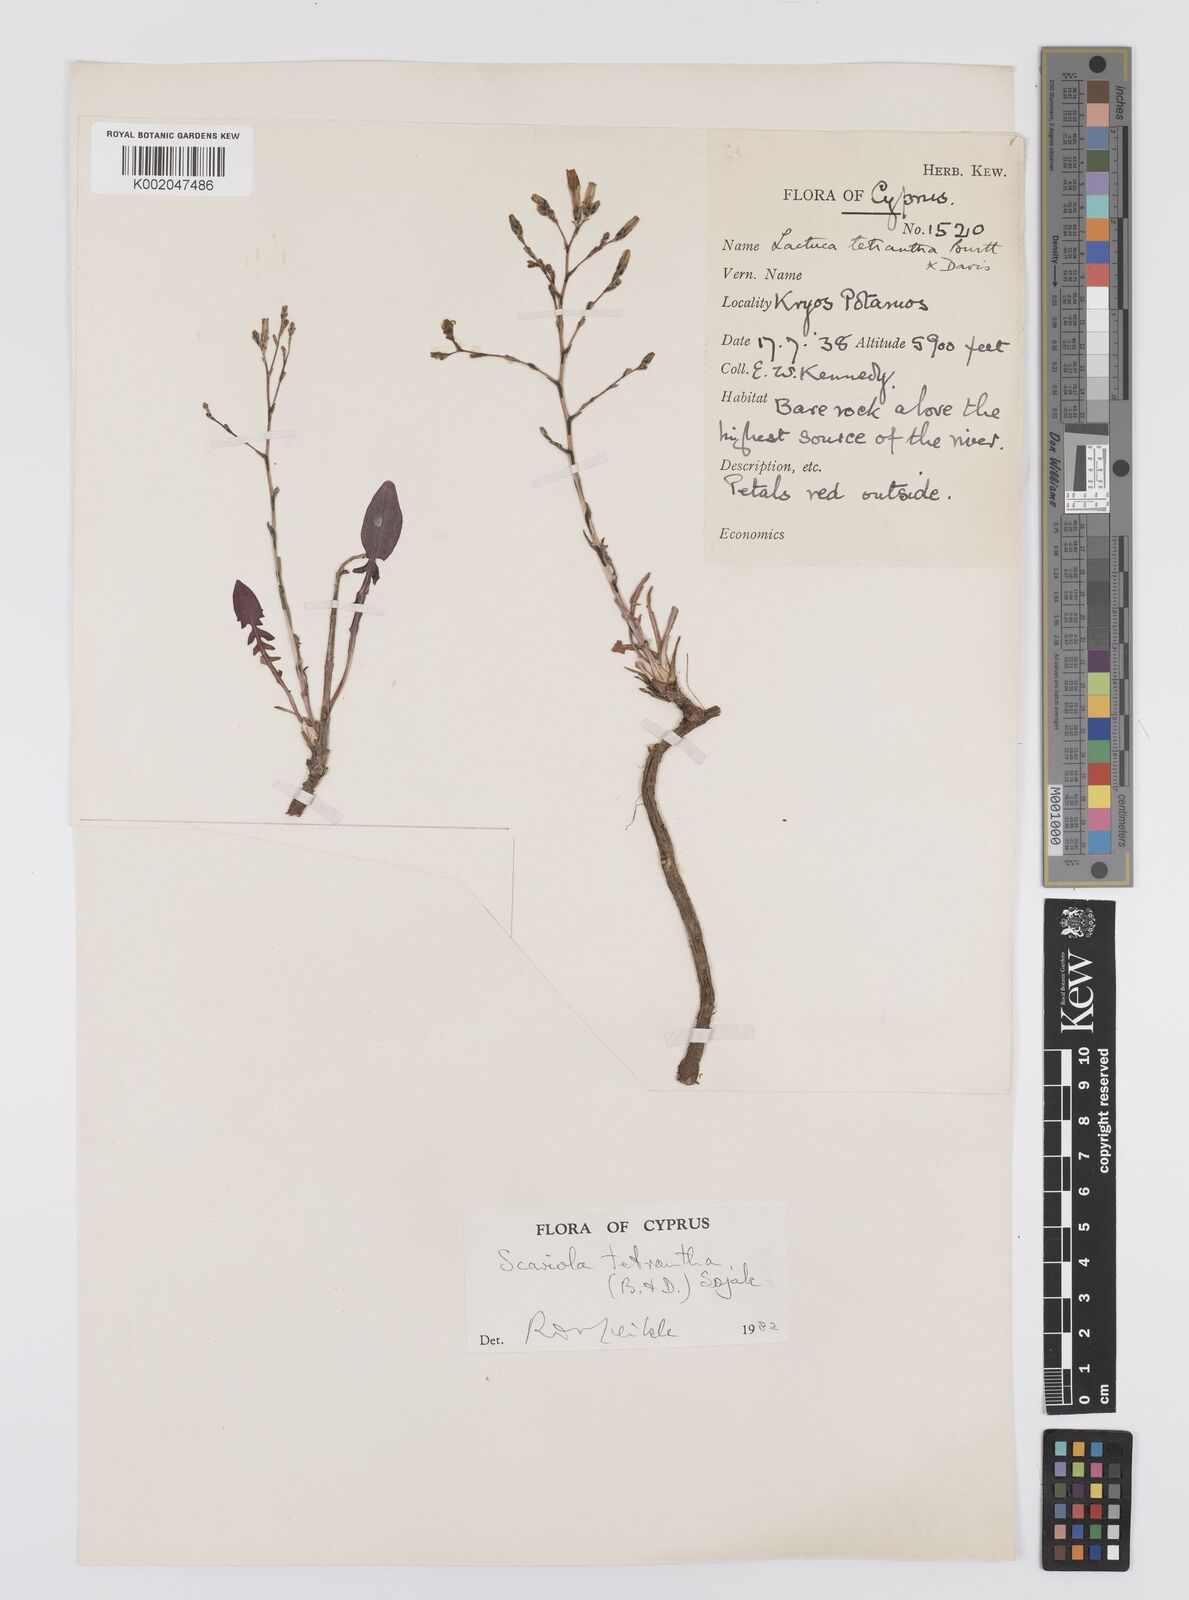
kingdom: Plantae
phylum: Tracheophyta
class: Magnoliopsida
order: Asterales
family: Asteraceae
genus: Lactuca
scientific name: Lactuca tetrantha
